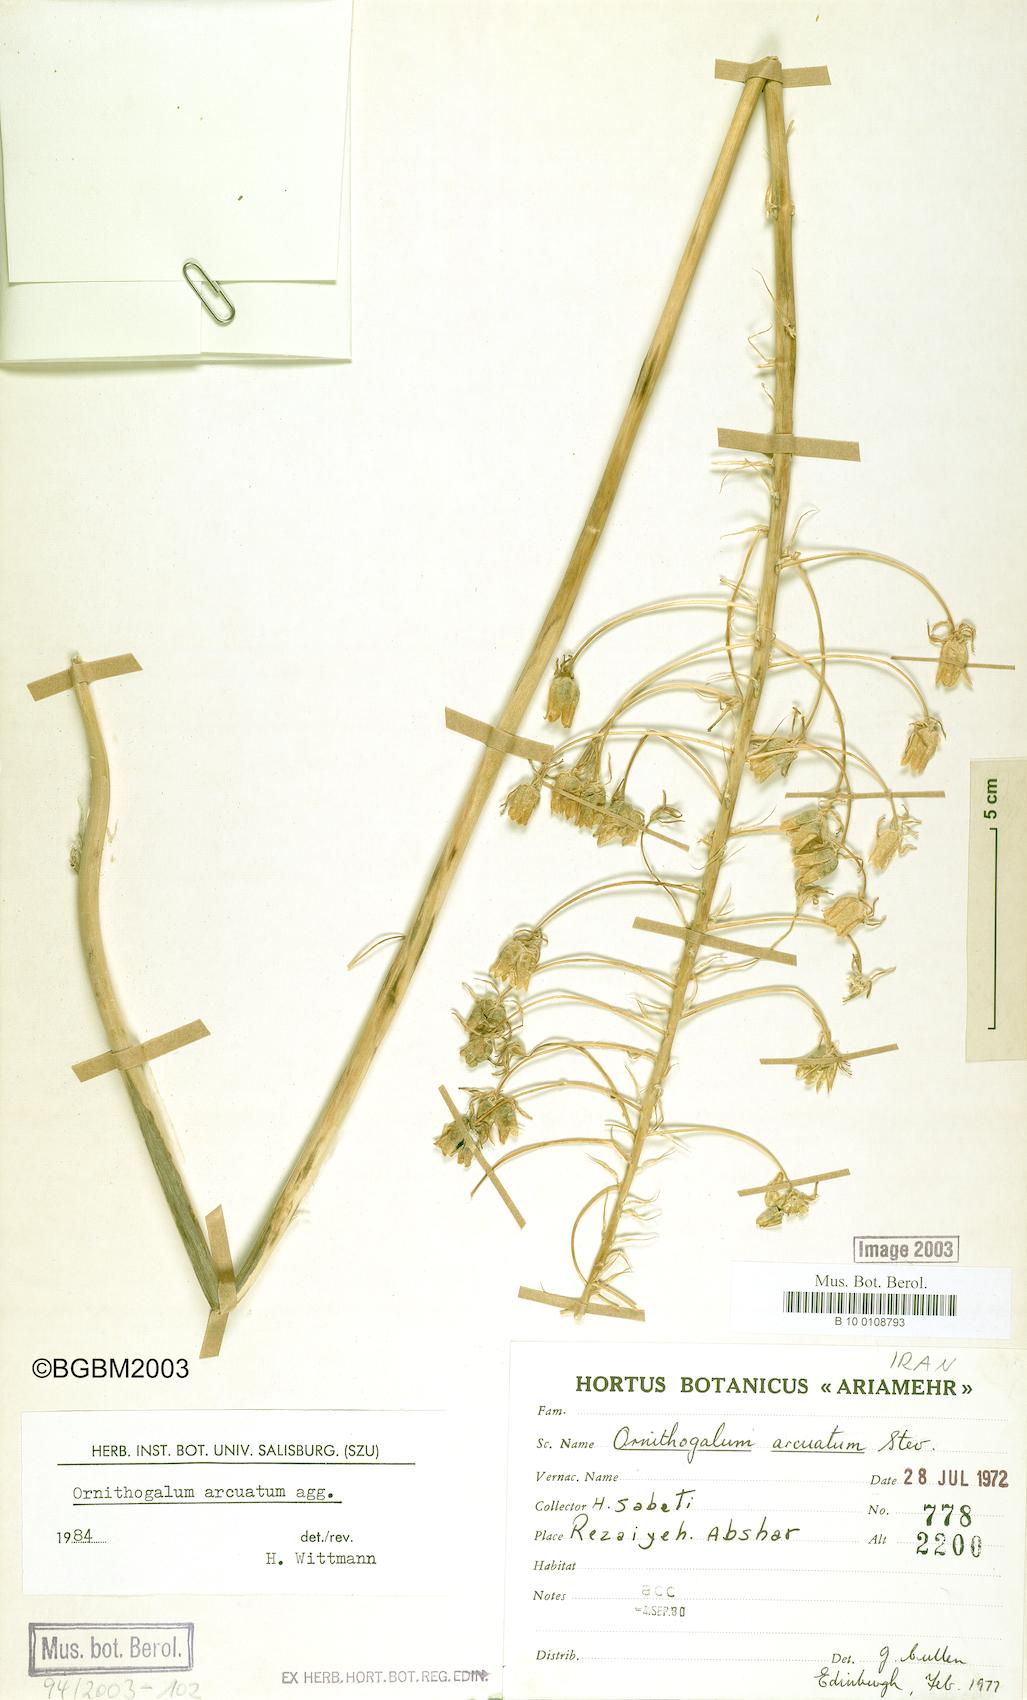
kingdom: Plantae
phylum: Tracheophyta
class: Liliopsida
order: Asparagales
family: Asparagaceae
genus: Ornithogalum
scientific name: Ornithogalum arcuatum
